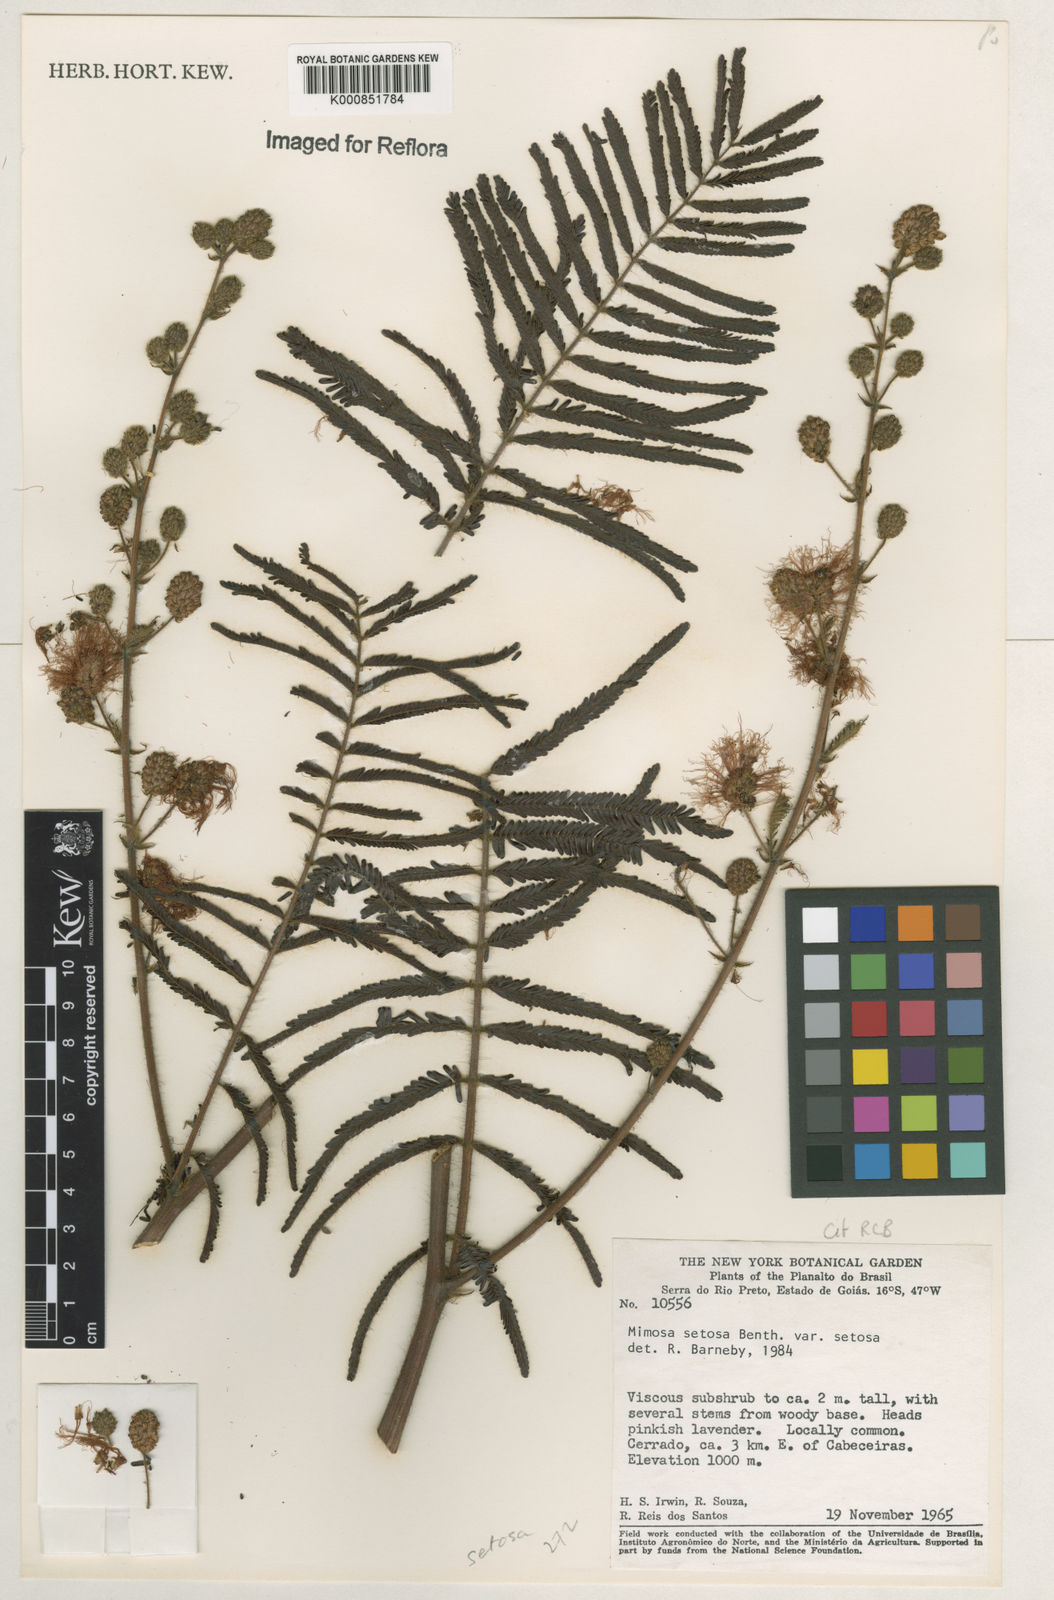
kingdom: Plantae
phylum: Tracheophyta
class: Magnoliopsida
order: Fabales
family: Fabaceae
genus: Mimosa
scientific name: Mimosa setosa
